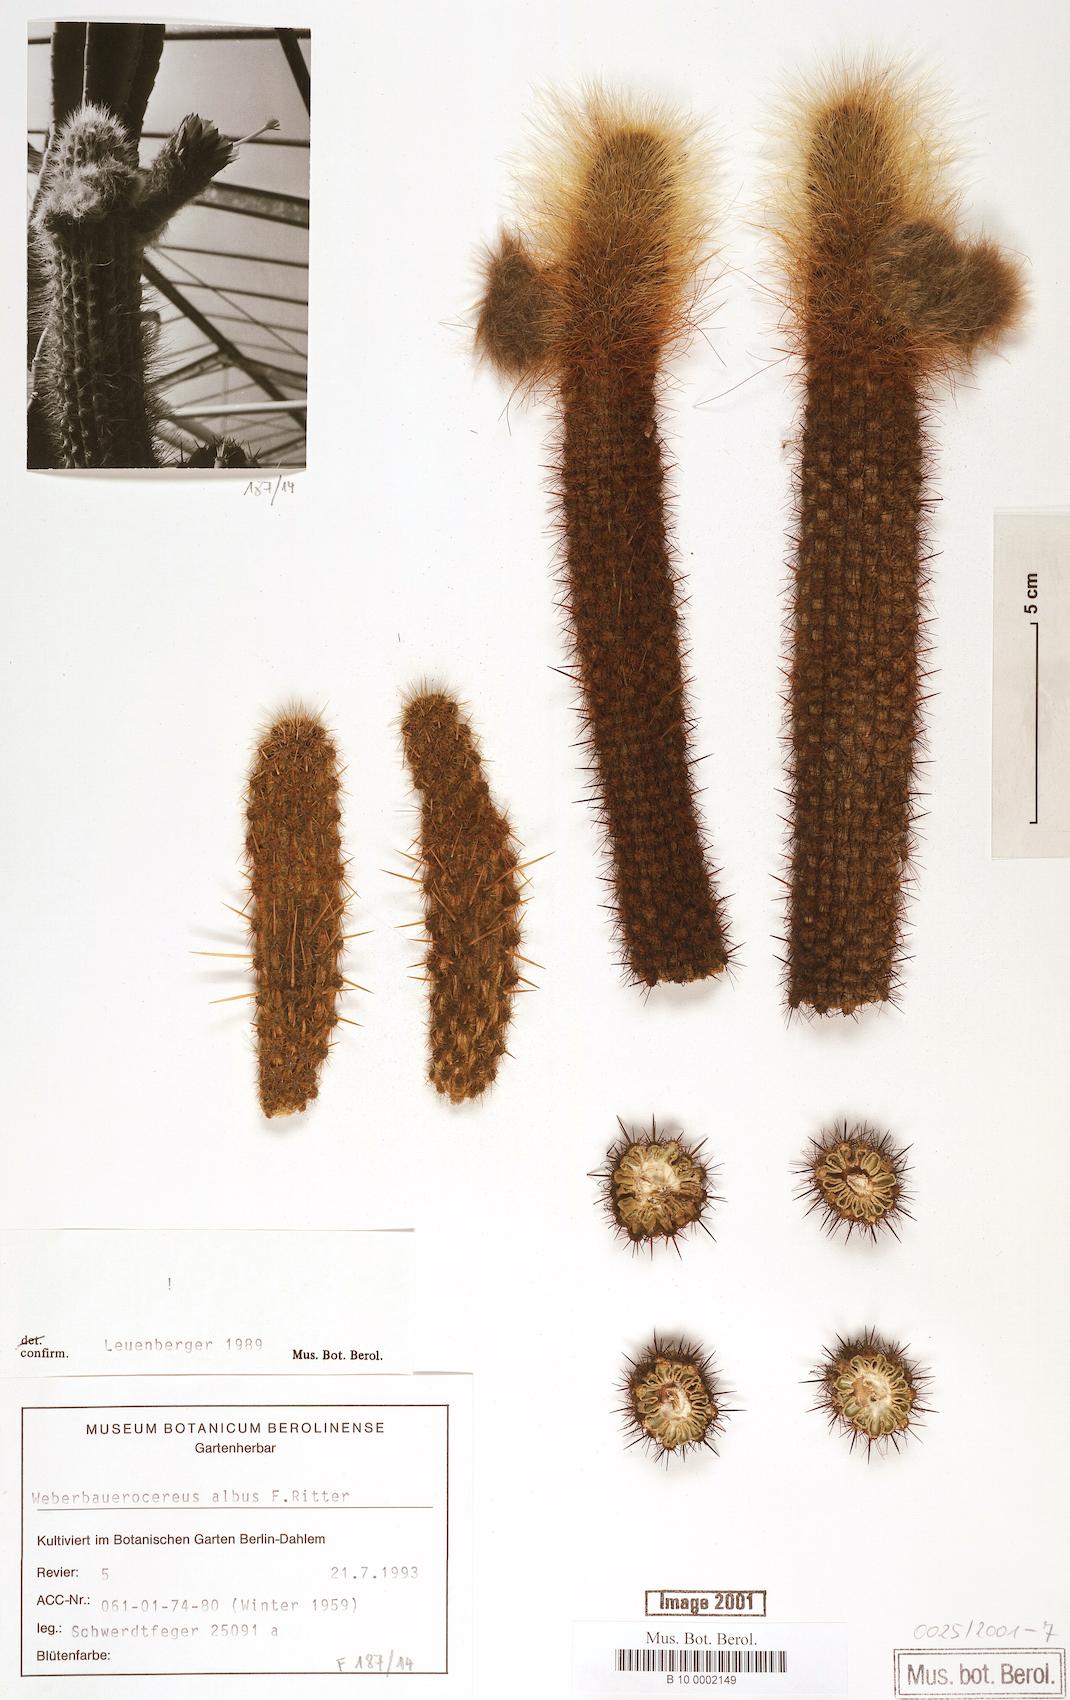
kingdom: Plantae
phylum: Tracheophyta
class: Magnoliopsida
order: Caryophyllales
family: Cactaceae
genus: Weberbauerocereus
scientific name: Weberbauerocereus albus
